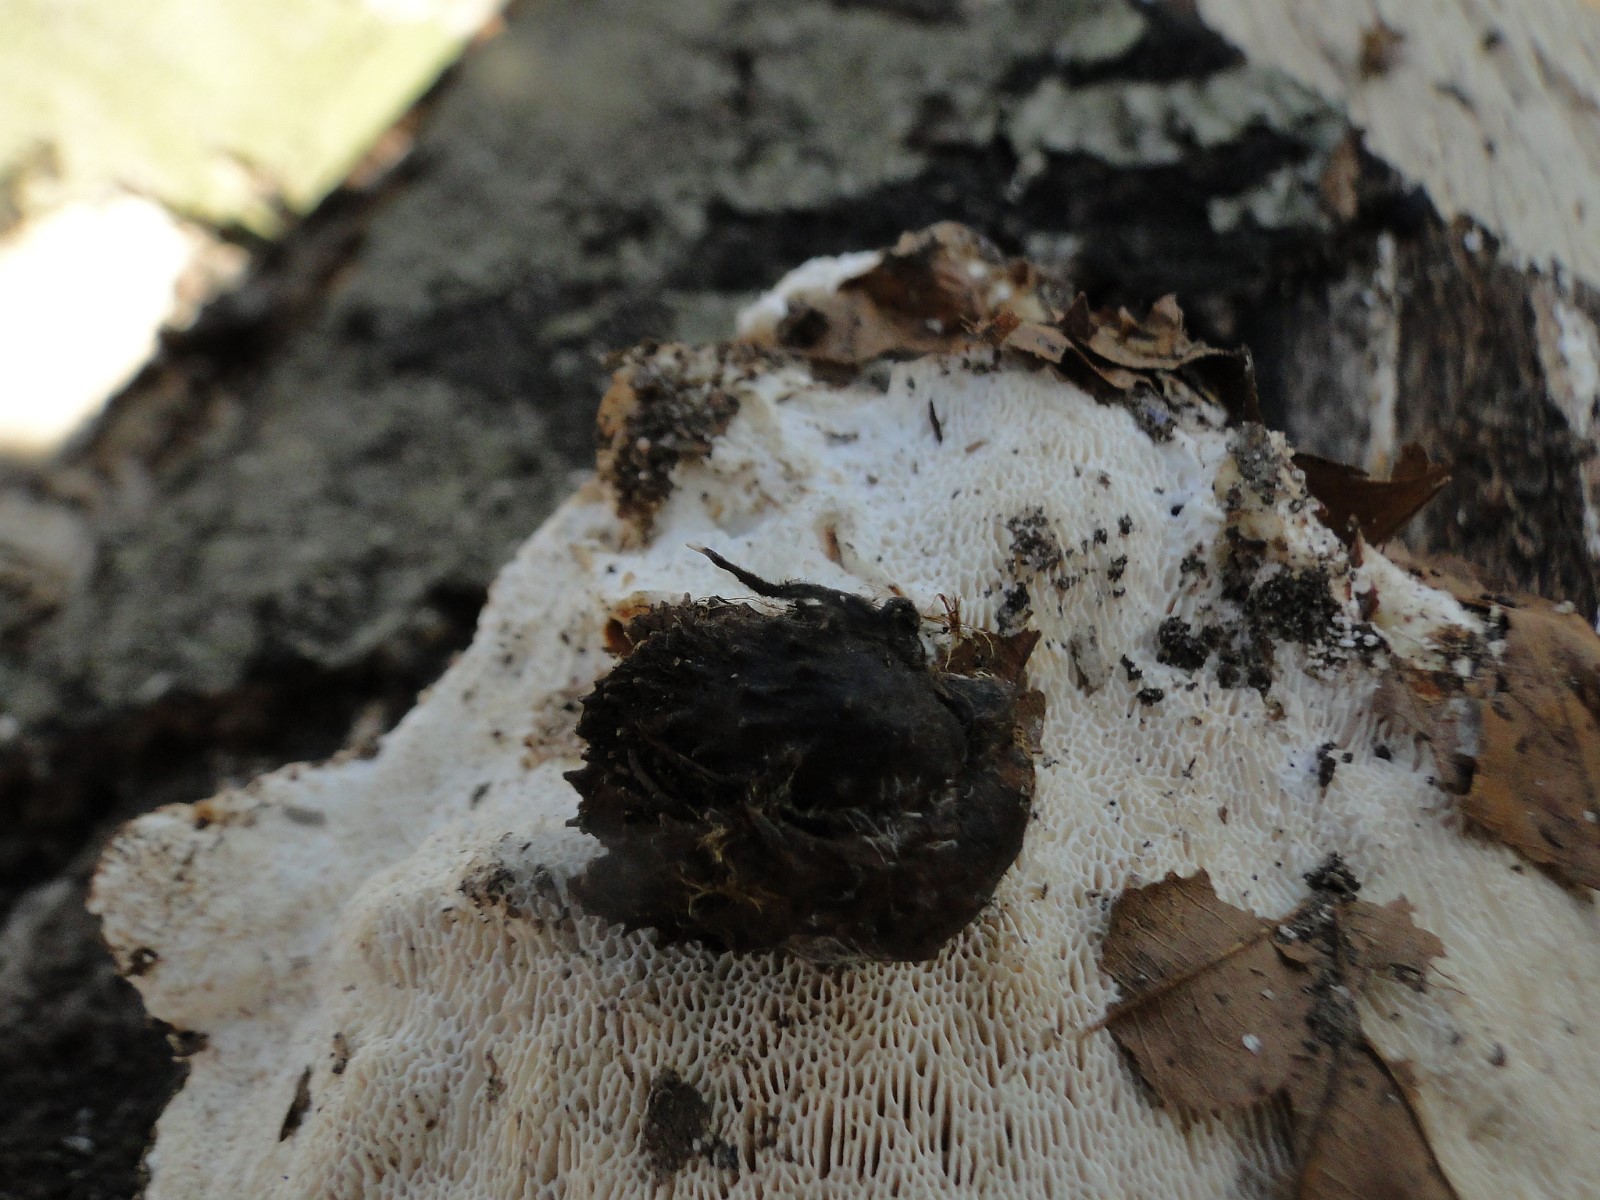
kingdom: Fungi
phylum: Ascomycota
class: Sordariomycetes
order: Xylariales
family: Xylariaceae
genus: Xylaria
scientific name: Xylaria carpophila
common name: bogskål-stødsvamp
